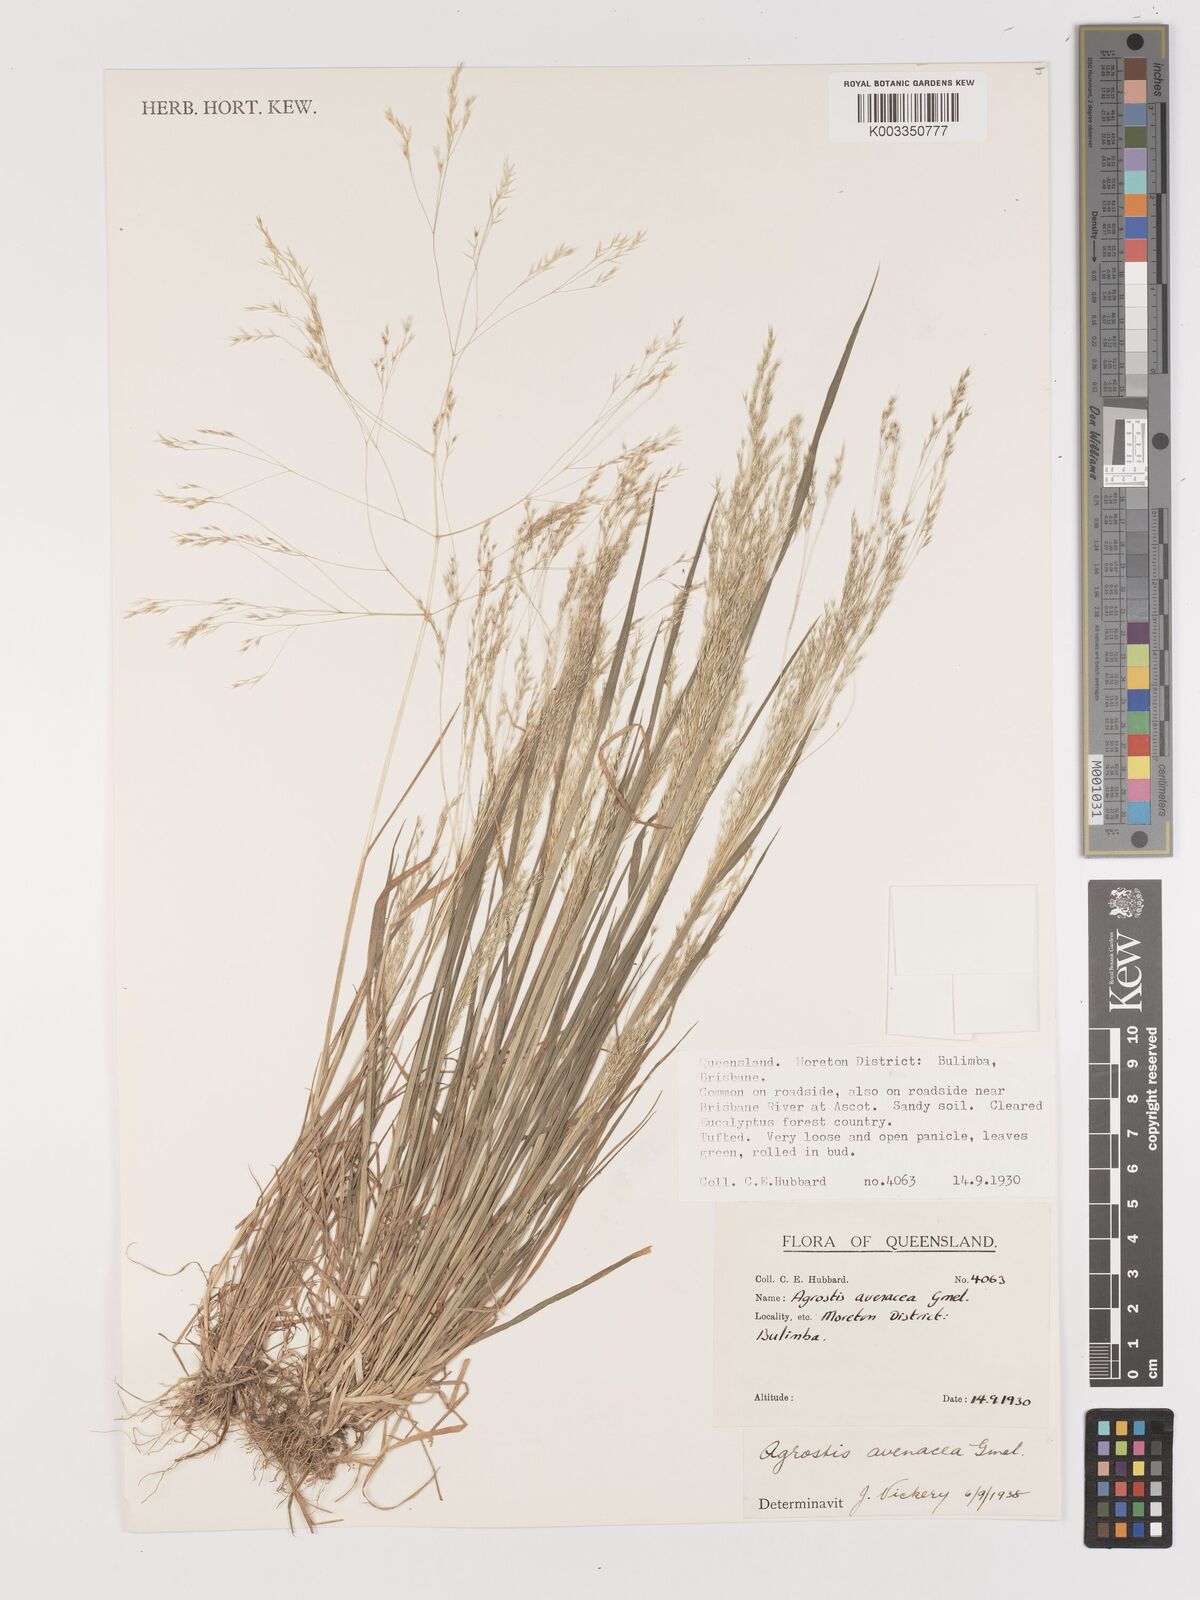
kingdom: Plantae
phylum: Tracheophyta
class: Liliopsida
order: Poales
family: Poaceae
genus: Lachnagrostis
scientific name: Lachnagrostis filiformis
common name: Bentgrass
